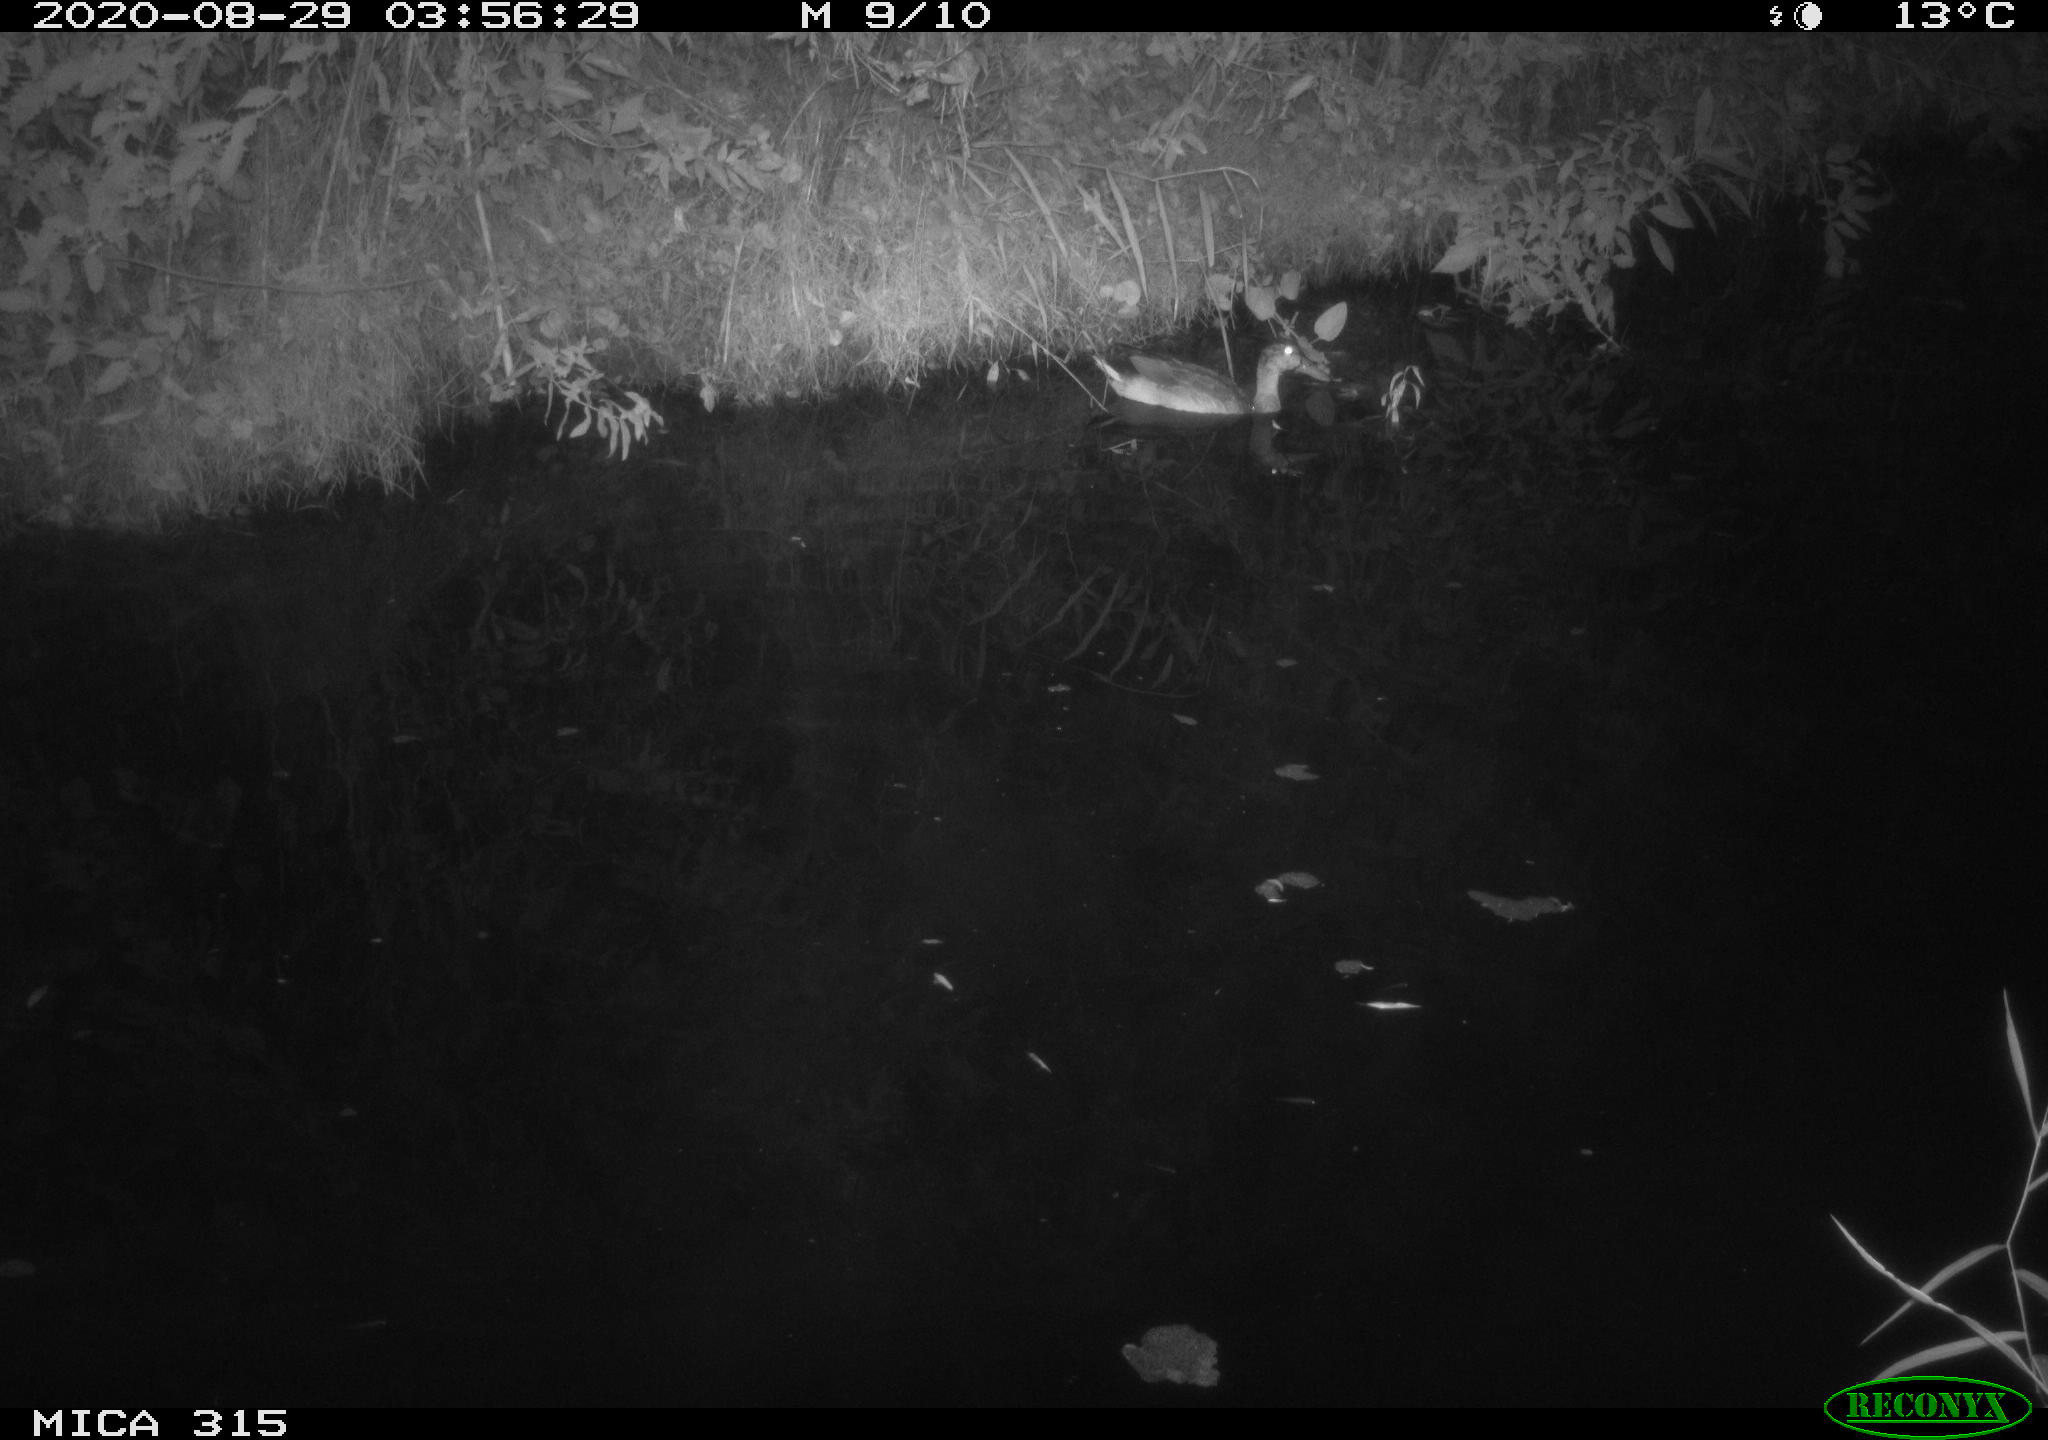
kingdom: Animalia
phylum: Chordata
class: Aves
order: Anseriformes
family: Anatidae
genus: Anas
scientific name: Anas platyrhynchos
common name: Mallard
